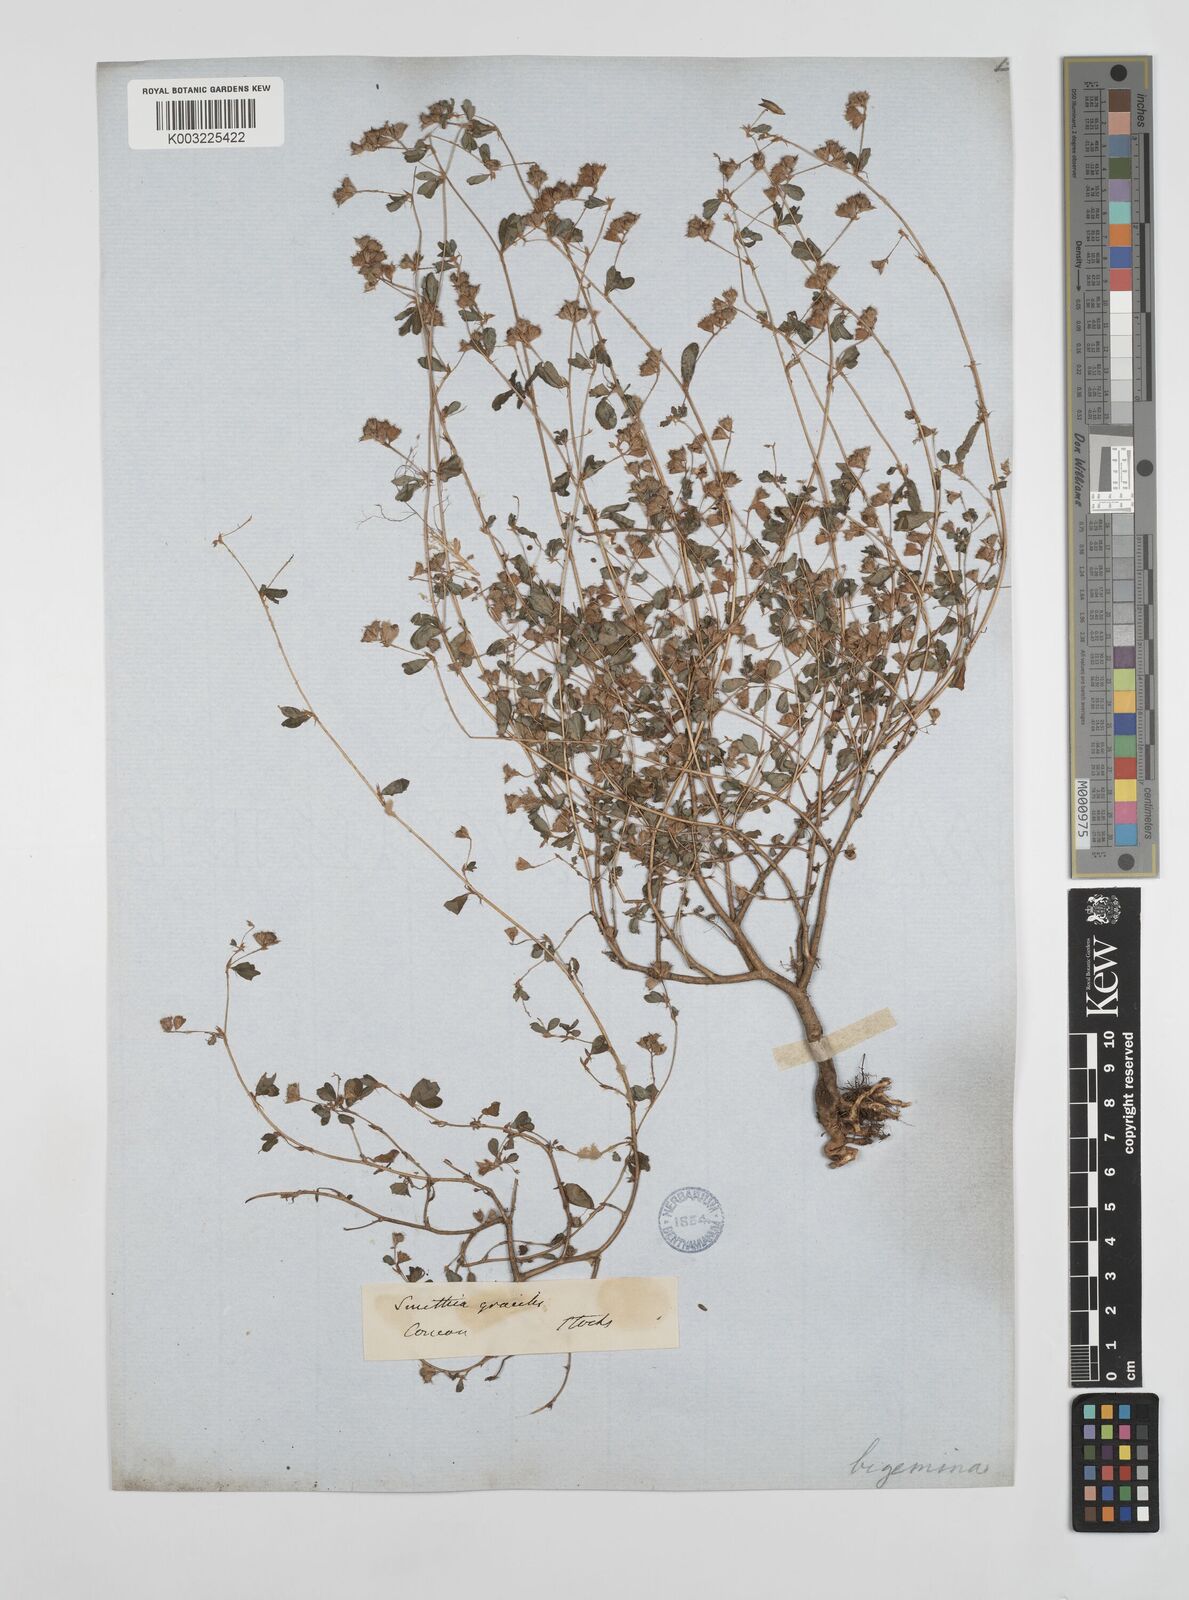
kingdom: Plantae
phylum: Tracheophyta
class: Magnoliopsida
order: Fabales
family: Fabaceae
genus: Smithia
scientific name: Smithia bigemina
